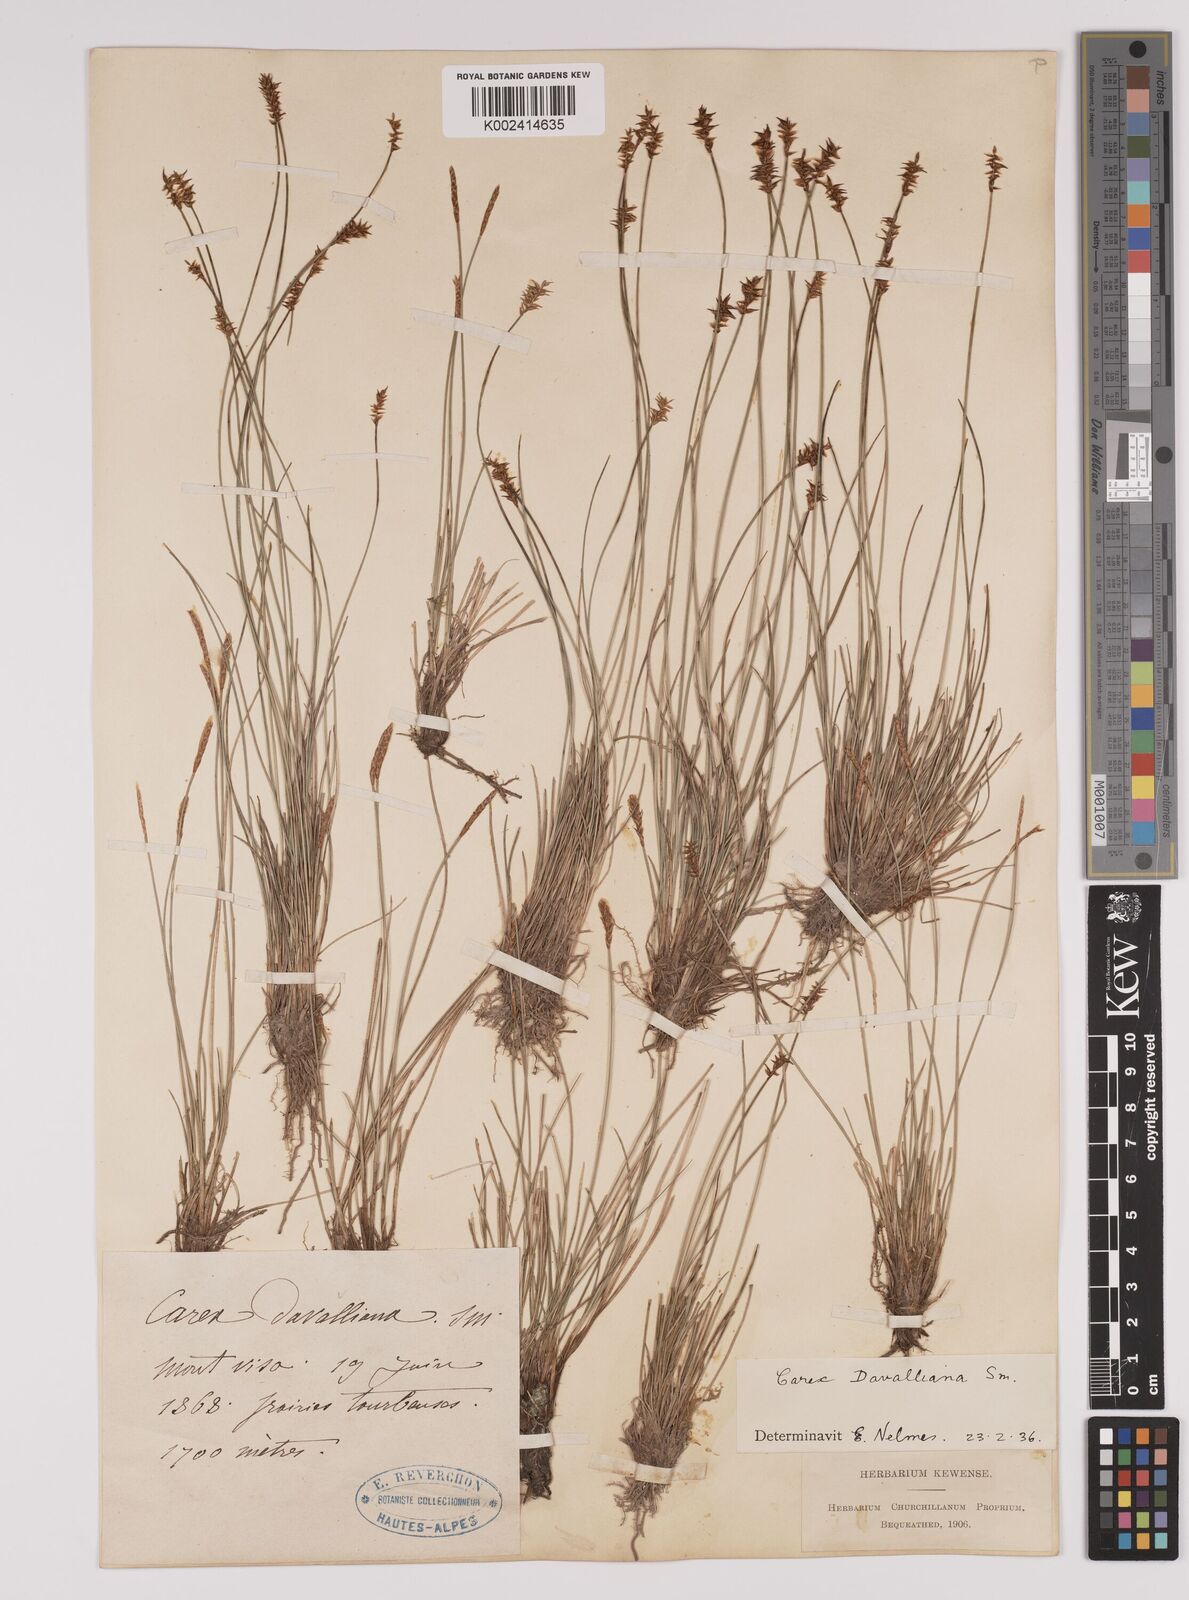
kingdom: Plantae
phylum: Tracheophyta
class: Liliopsida
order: Poales
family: Cyperaceae
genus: Carex
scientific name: Carex davalliana
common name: Davall's sedge
